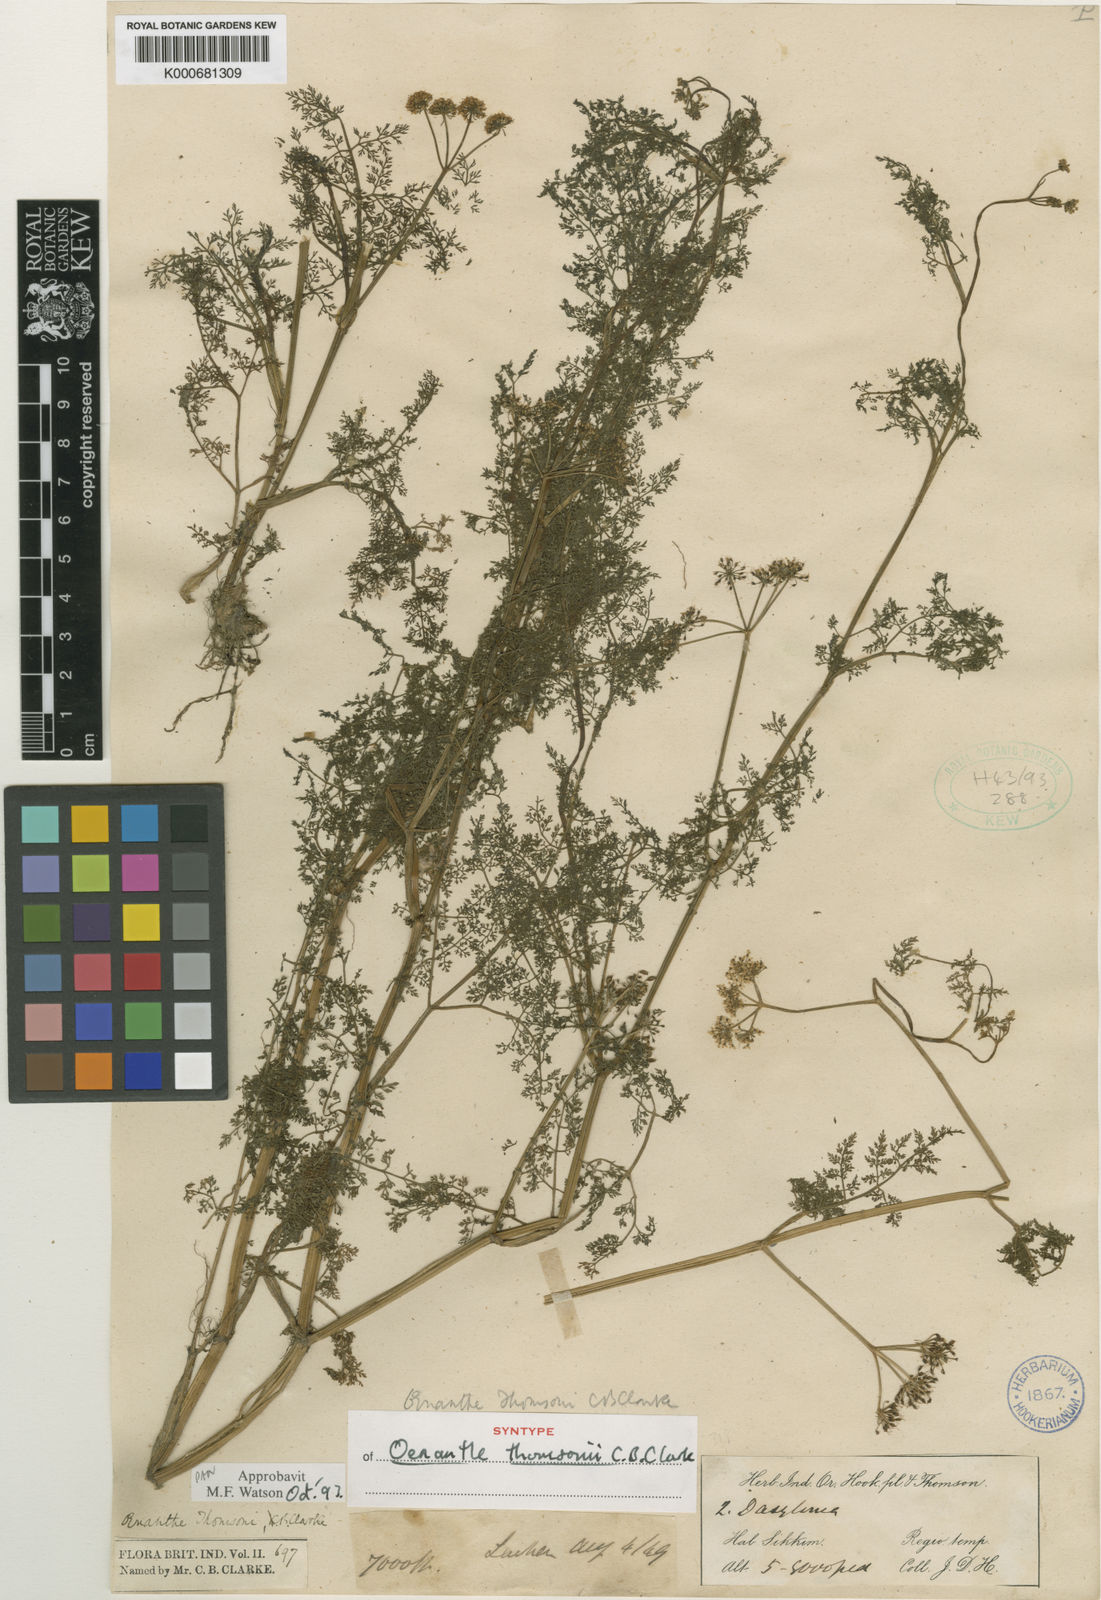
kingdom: Plantae
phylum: Tracheophyta
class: Magnoliopsida
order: Apiales
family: Apiaceae
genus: Oenanthe
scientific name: Oenanthe thomsonii
